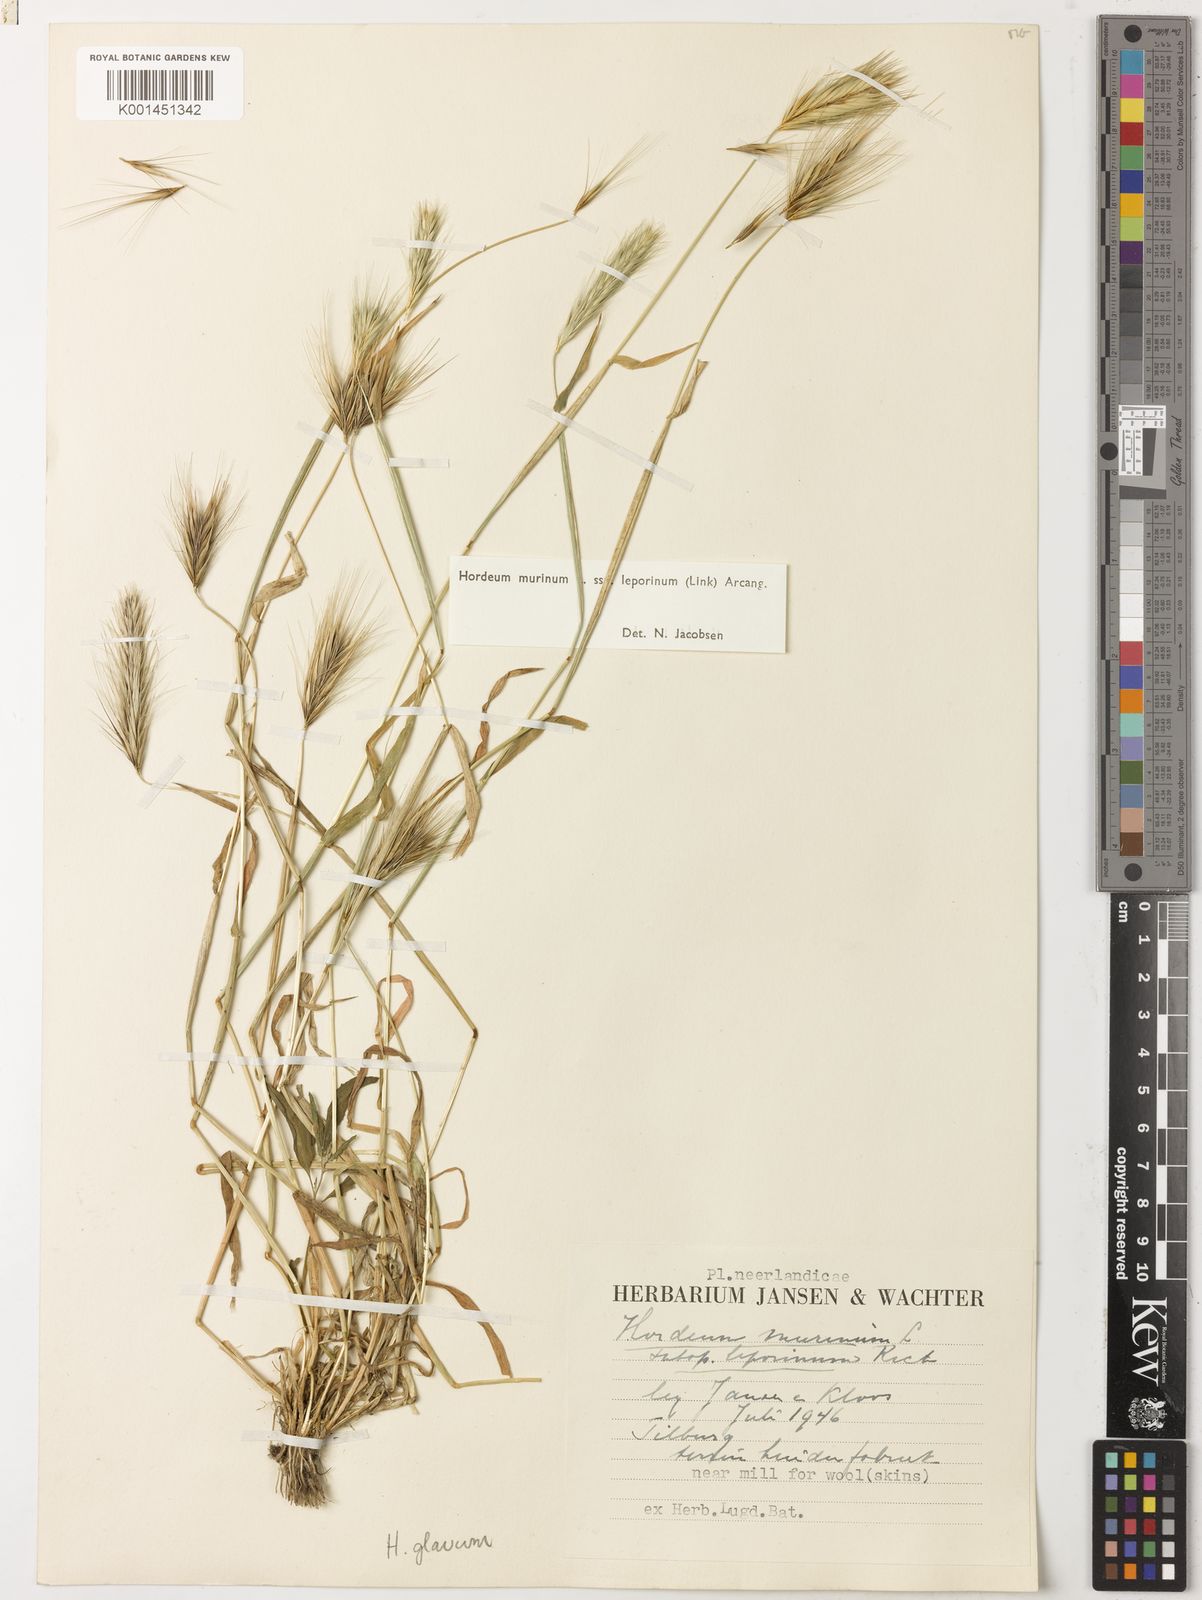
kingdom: Plantae
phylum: Tracheophyta
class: Liliopsida
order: Poales
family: Poaceae
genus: Hordeum
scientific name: Hordeum murinum
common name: Wall barley
